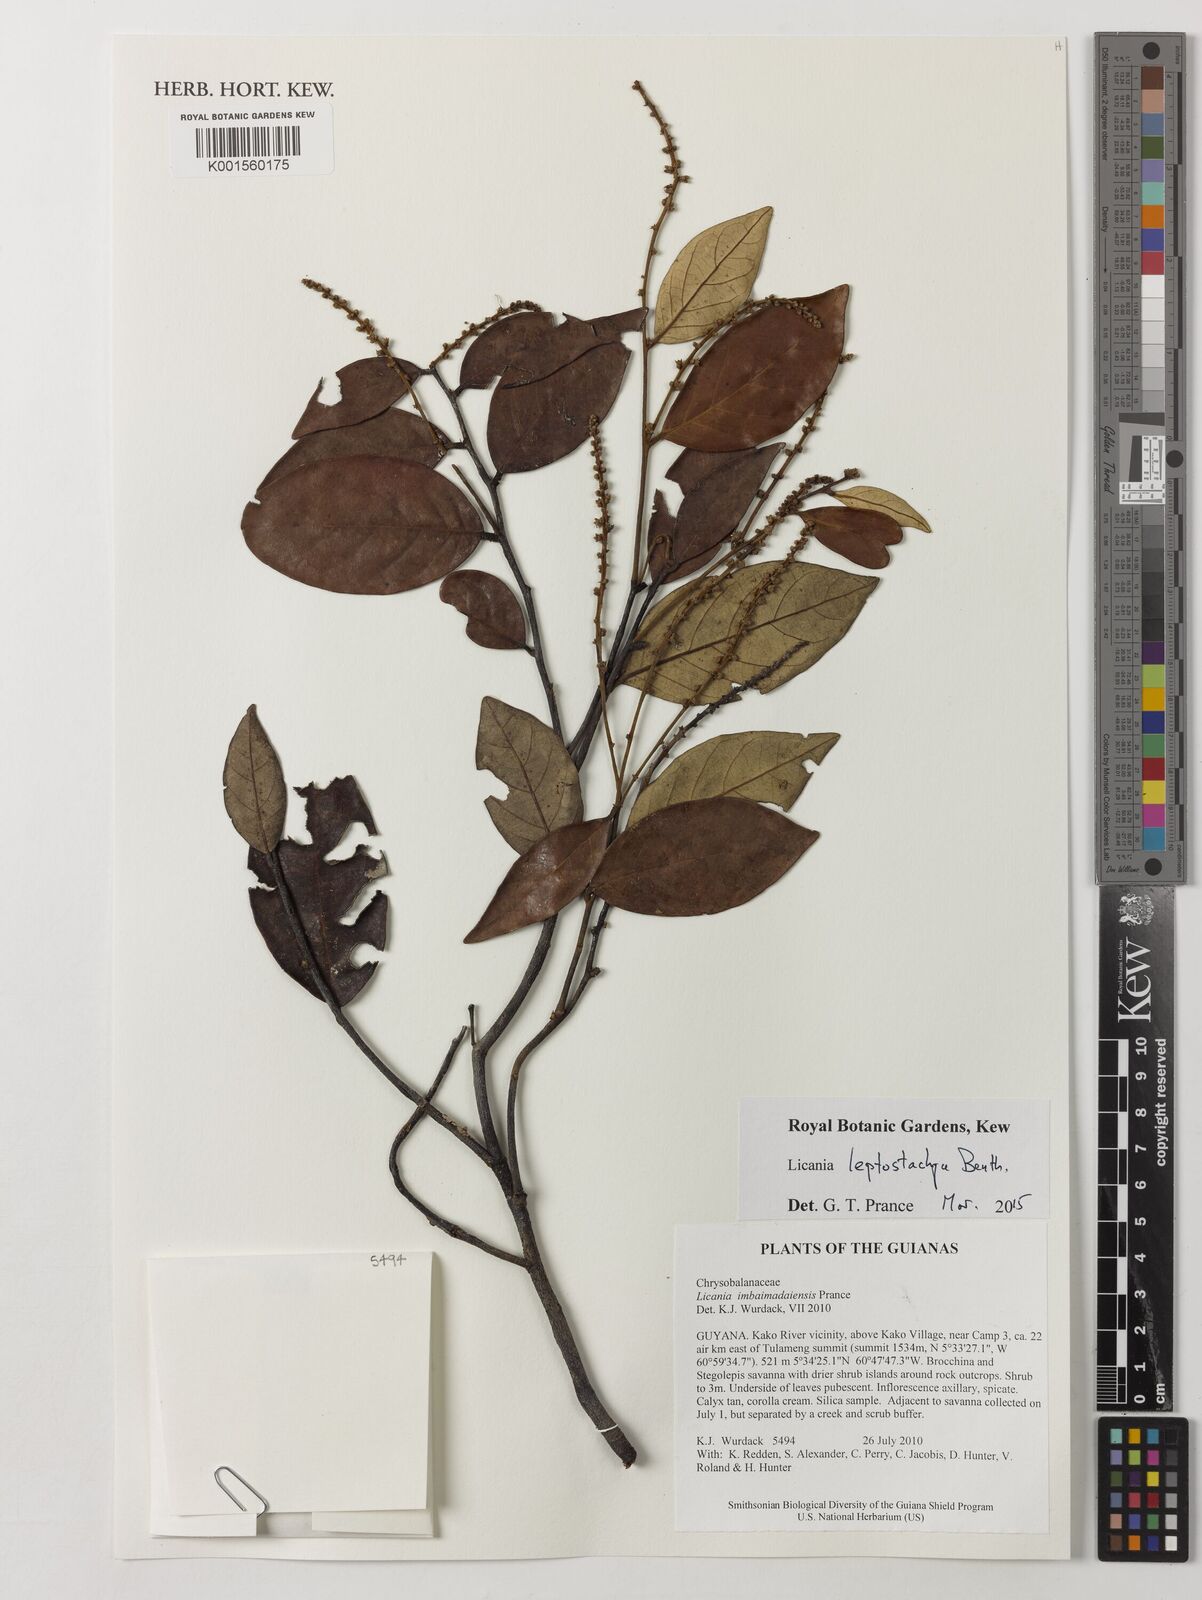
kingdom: Plantae
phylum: Tracheophyta
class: Magnoliopsida
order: Malpighiales
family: Chrysobalanaceae
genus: Licania
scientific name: Licania leptostachya
